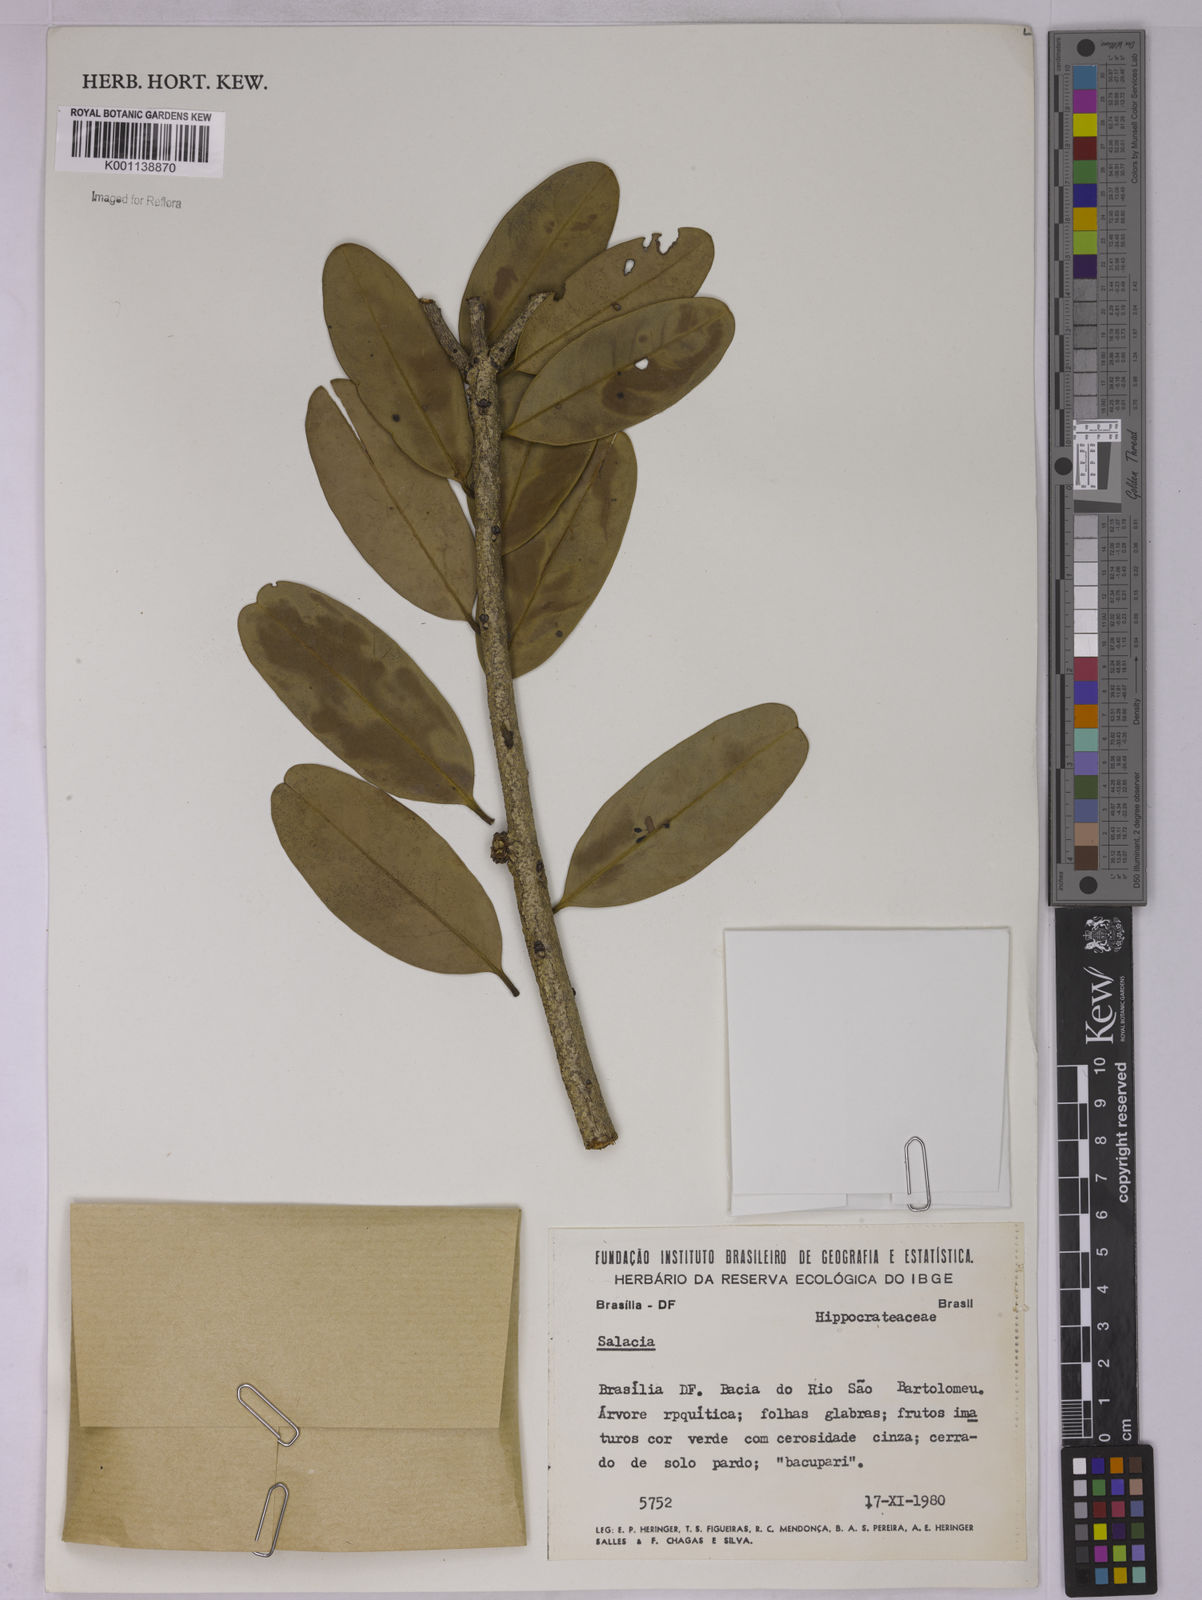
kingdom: Plantae
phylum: Tracheophyta
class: Magnoliopsida
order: Celastrales
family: Celastraceae
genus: Salacia
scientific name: Salacia crassifolia
